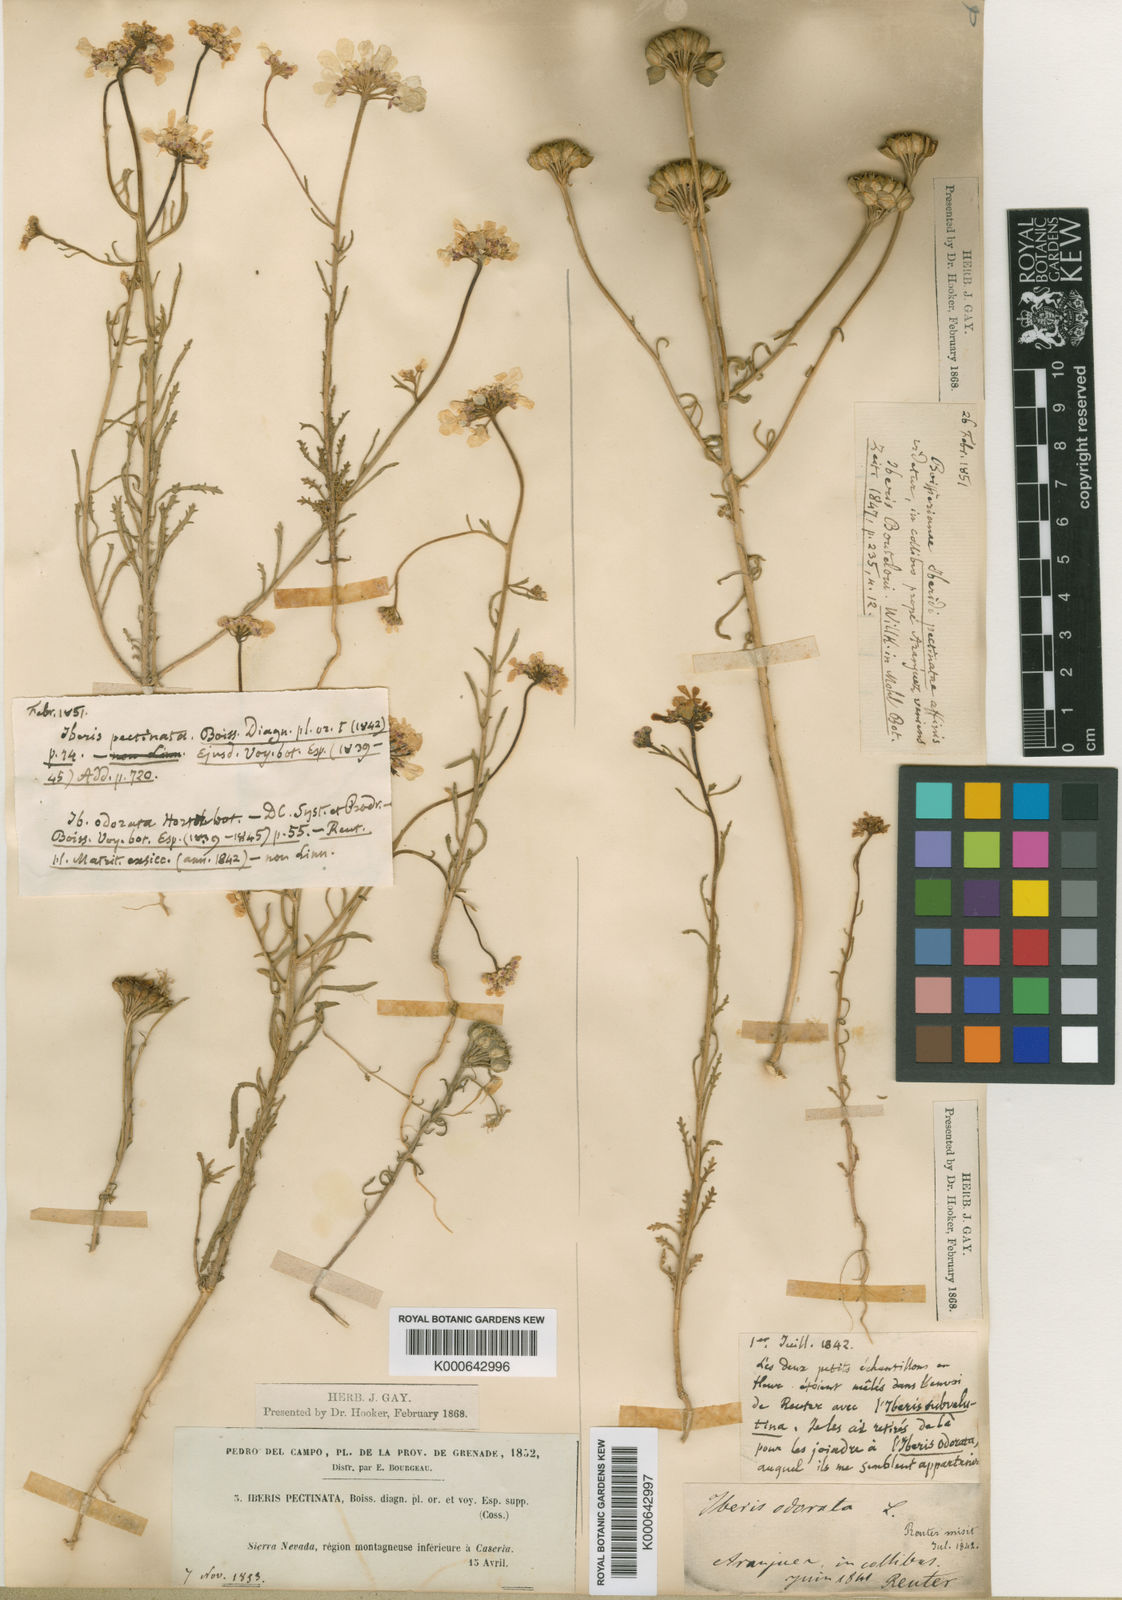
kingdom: Plantae
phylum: Tracheophyta
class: Magnoliopsida
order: Brassicales
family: Brassicaceae
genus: Iberis
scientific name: Iberis amara
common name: Annual candytuft
